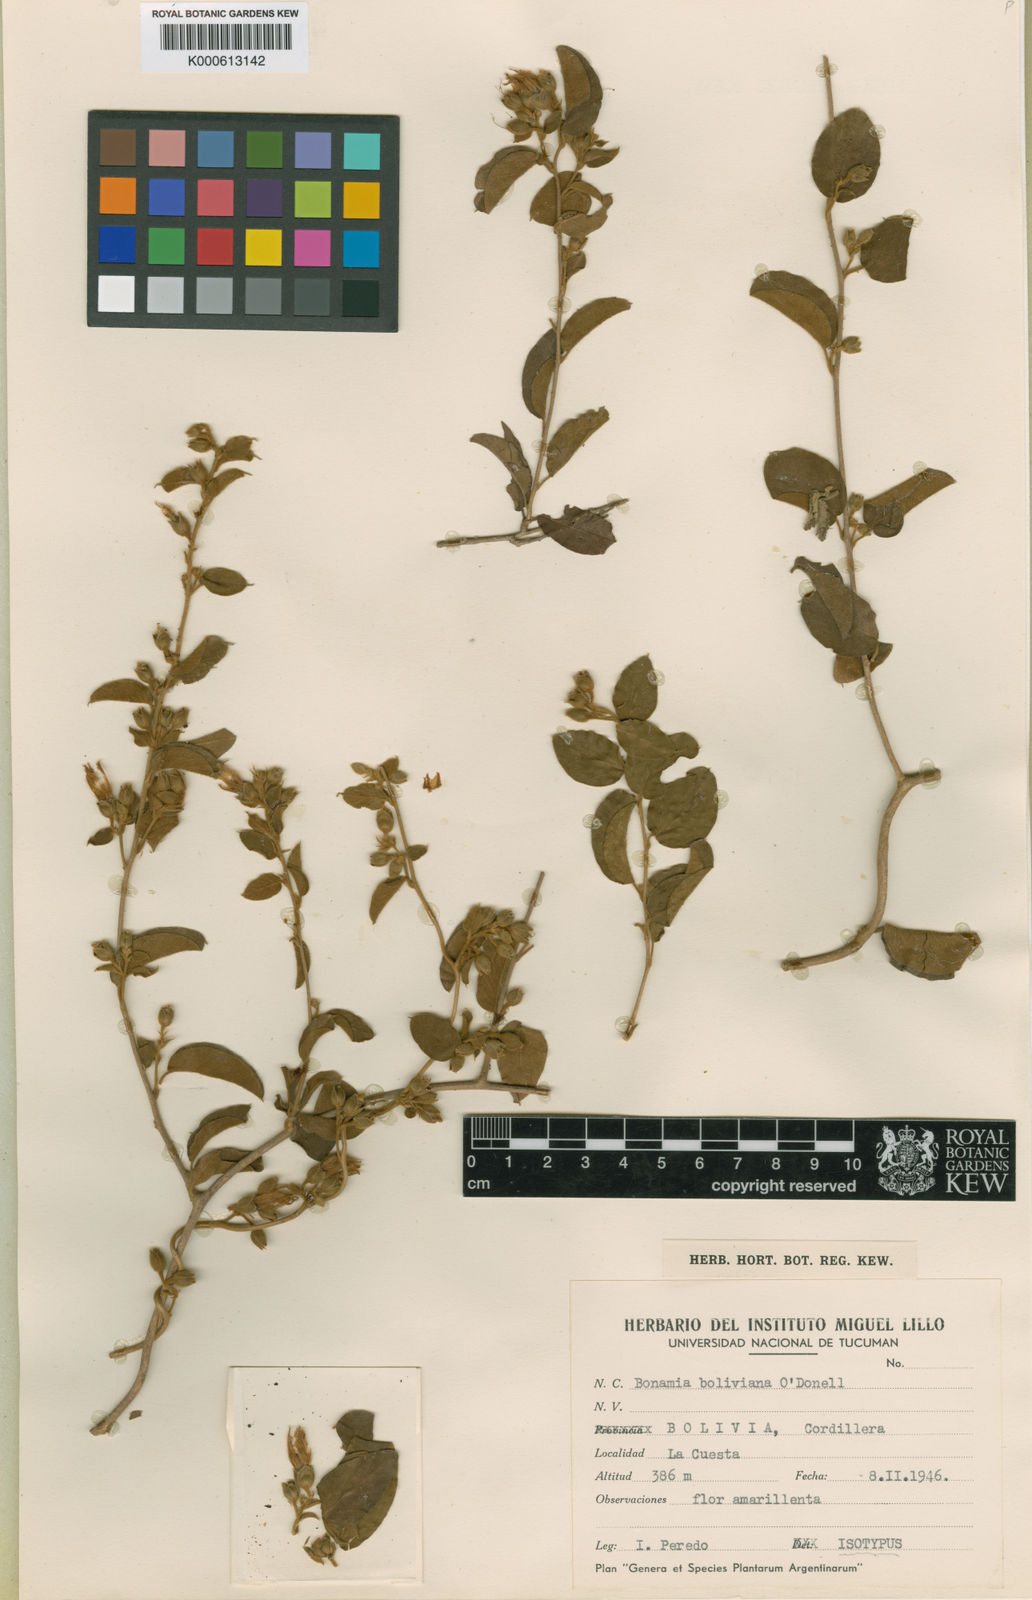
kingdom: Plantae
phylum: Tracheophyta
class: Magnoliopsida
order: Solanales
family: Convolvulaceae
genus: Bonamia
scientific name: Bonamia boliviana
